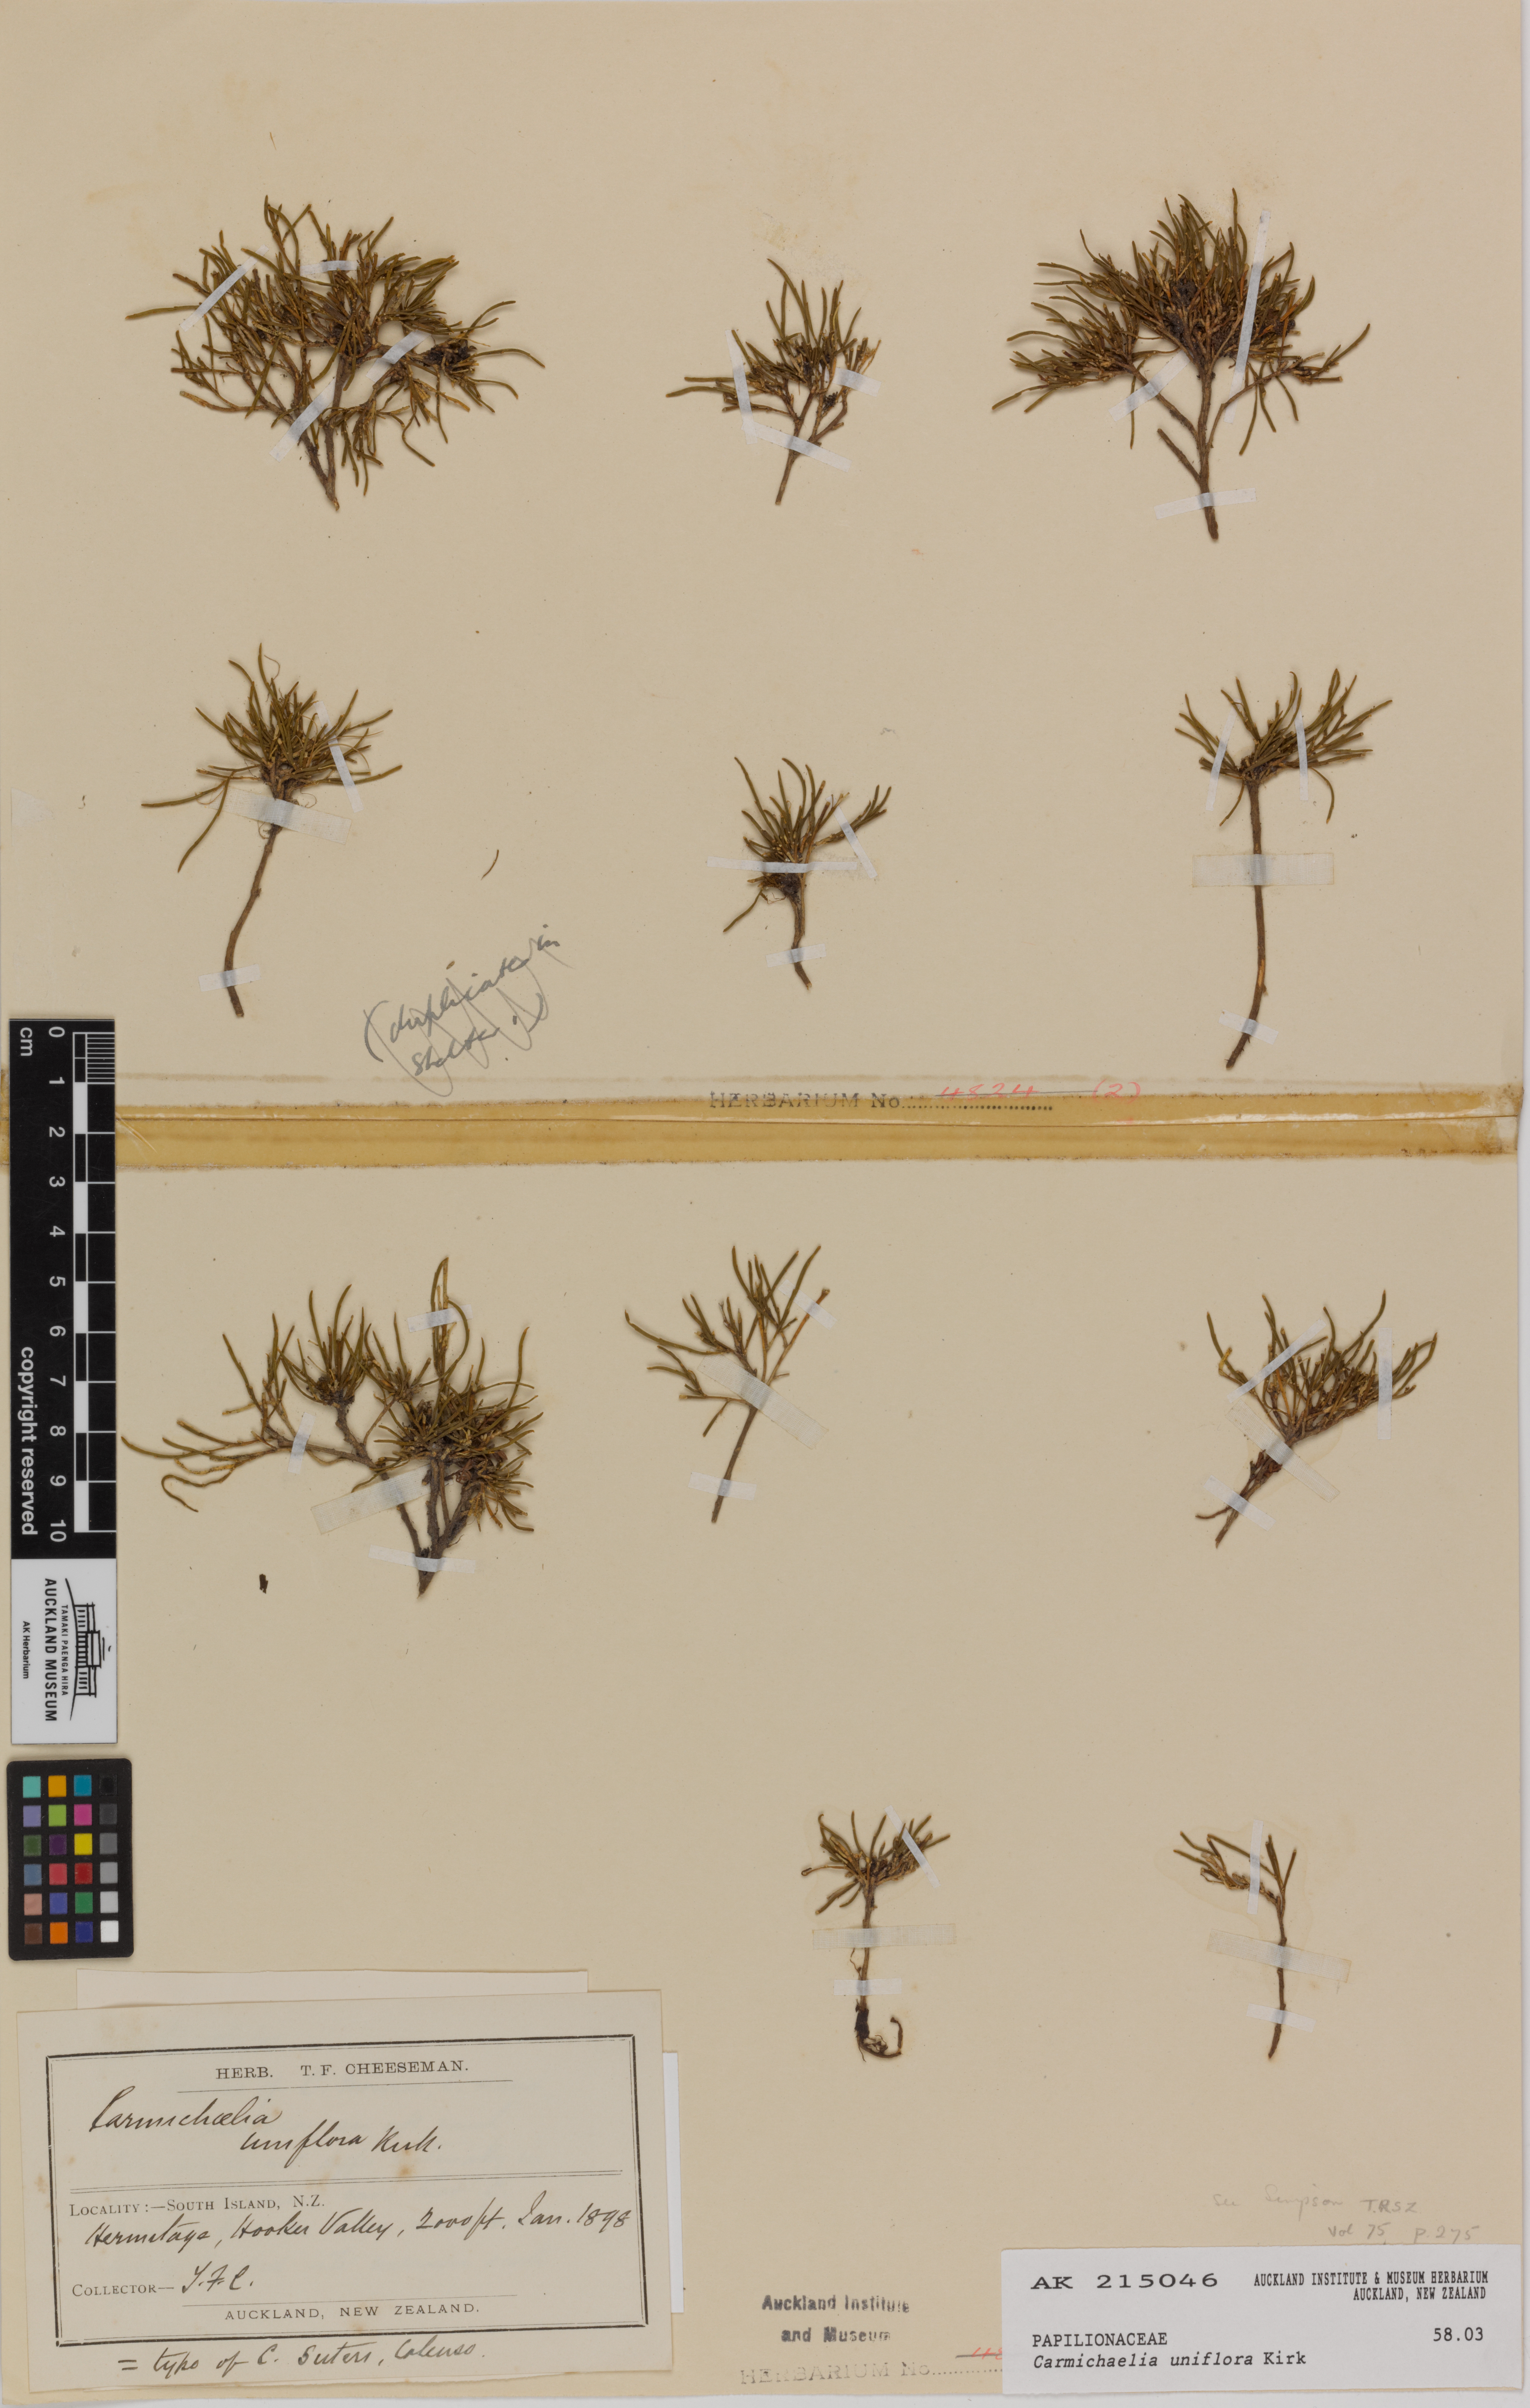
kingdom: Plantae
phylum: Tracheophyta
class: Magnoliopsida
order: Fabales
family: Fabaceae
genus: Carmichaelia
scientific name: Carmichaelia uniflora
